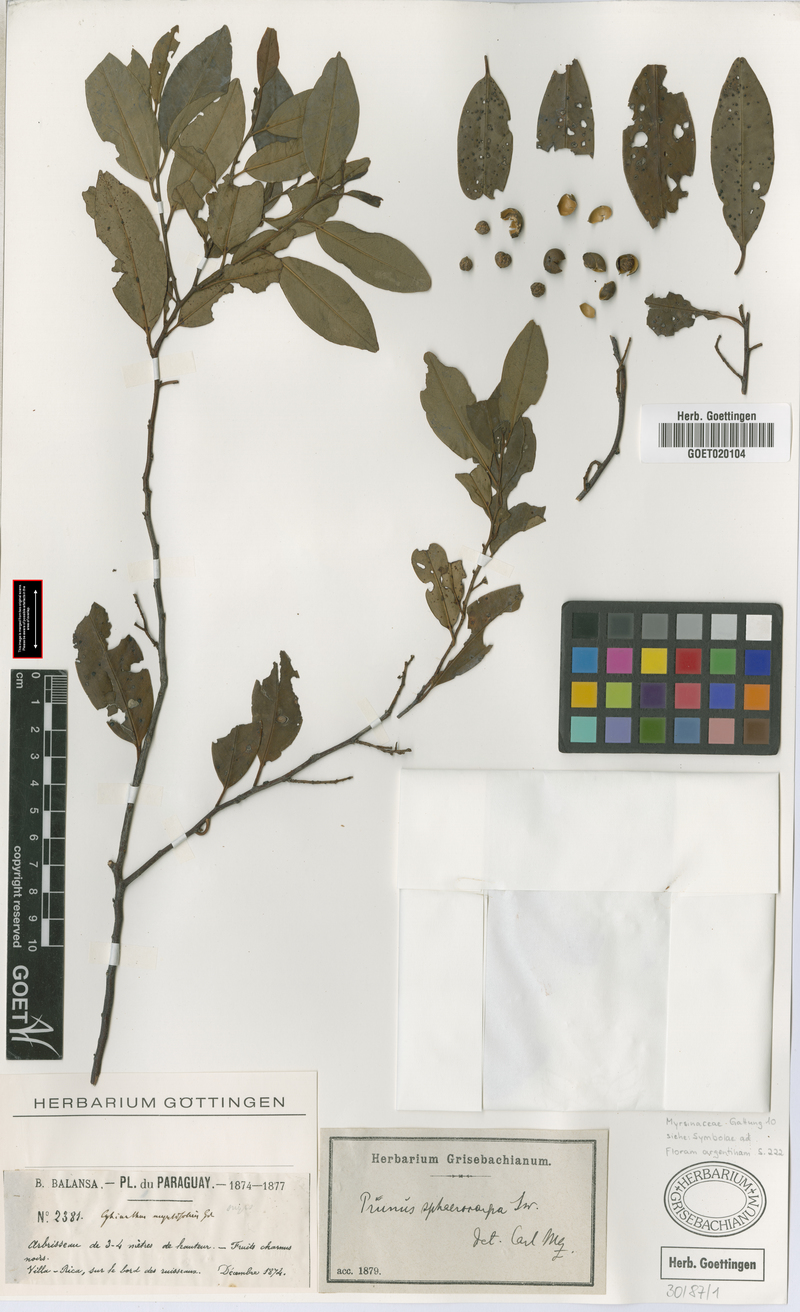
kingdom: Plantae
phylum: Tracheophyta
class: Magnoliopsida
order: Rosales
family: Rosaceae
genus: Prunus
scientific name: Prunus subcoriacea
